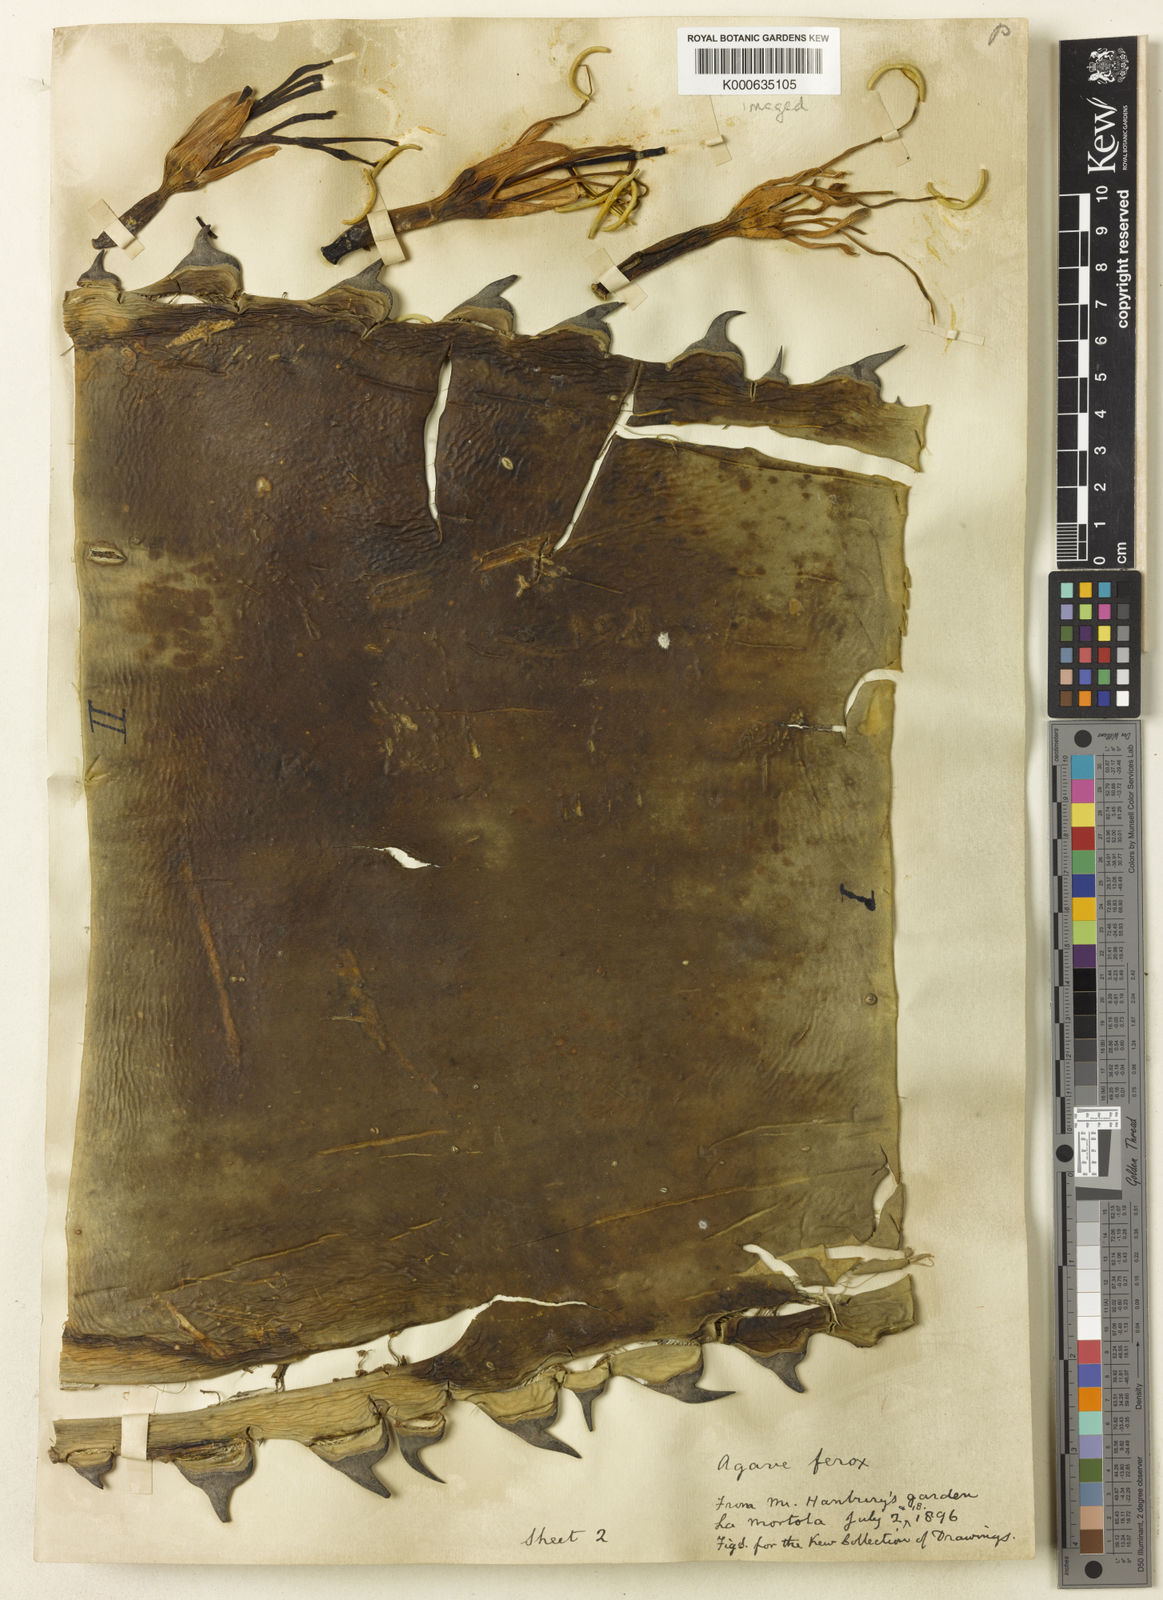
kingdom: Plantae
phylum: Tracheophyta
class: Liliopsida
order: Asparagales
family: Asparagaceae
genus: Agave
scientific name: Agave salmiana
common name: Pulque agave
